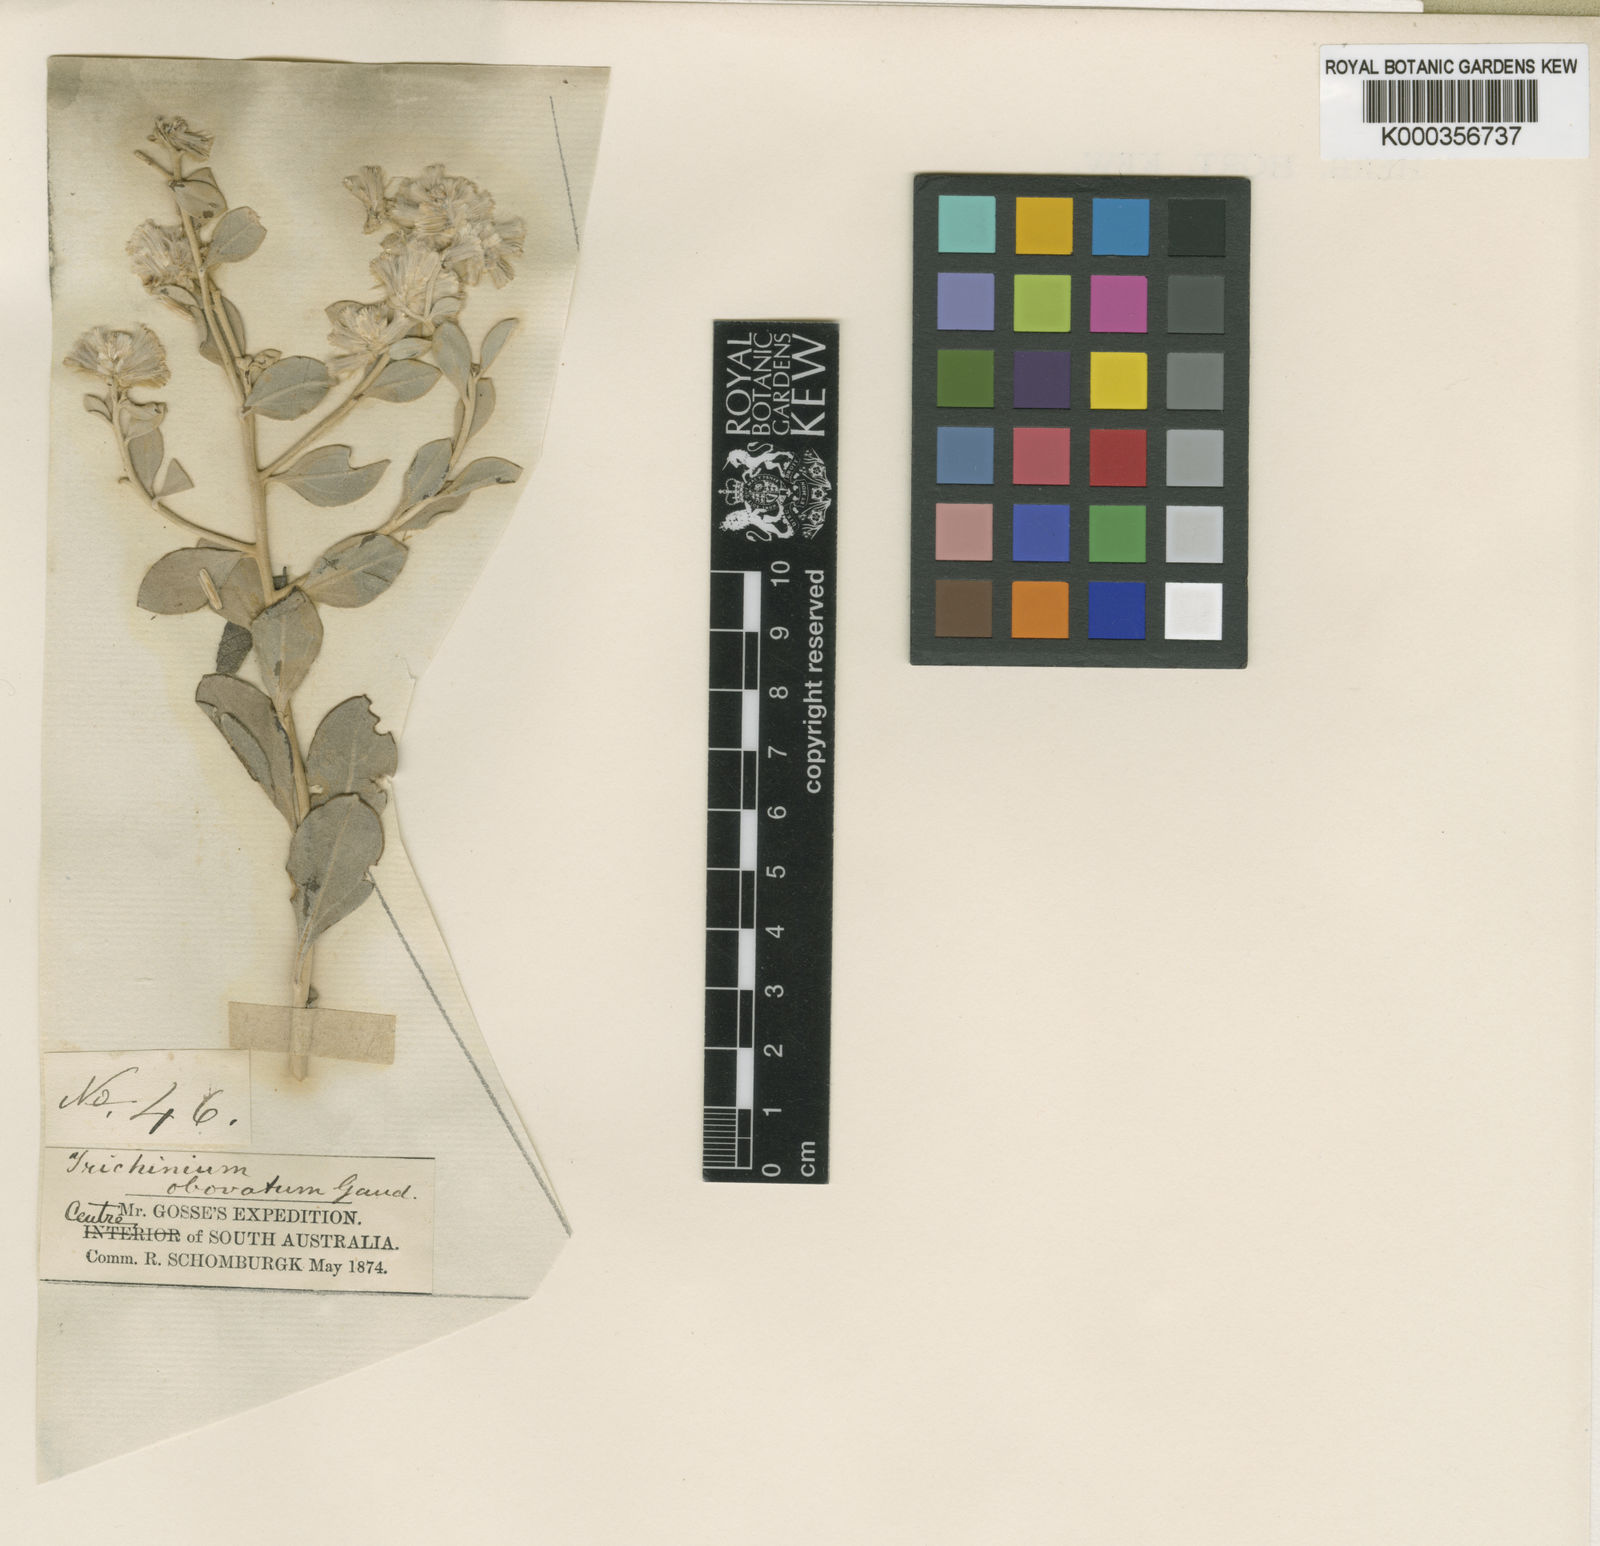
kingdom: Plantae
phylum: Tracheophyta
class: Magnoliopsida
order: Caryophyllales
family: Amaranthaceae
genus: Ptilotus
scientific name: Ptilotus obovatus
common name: Cottonbush
